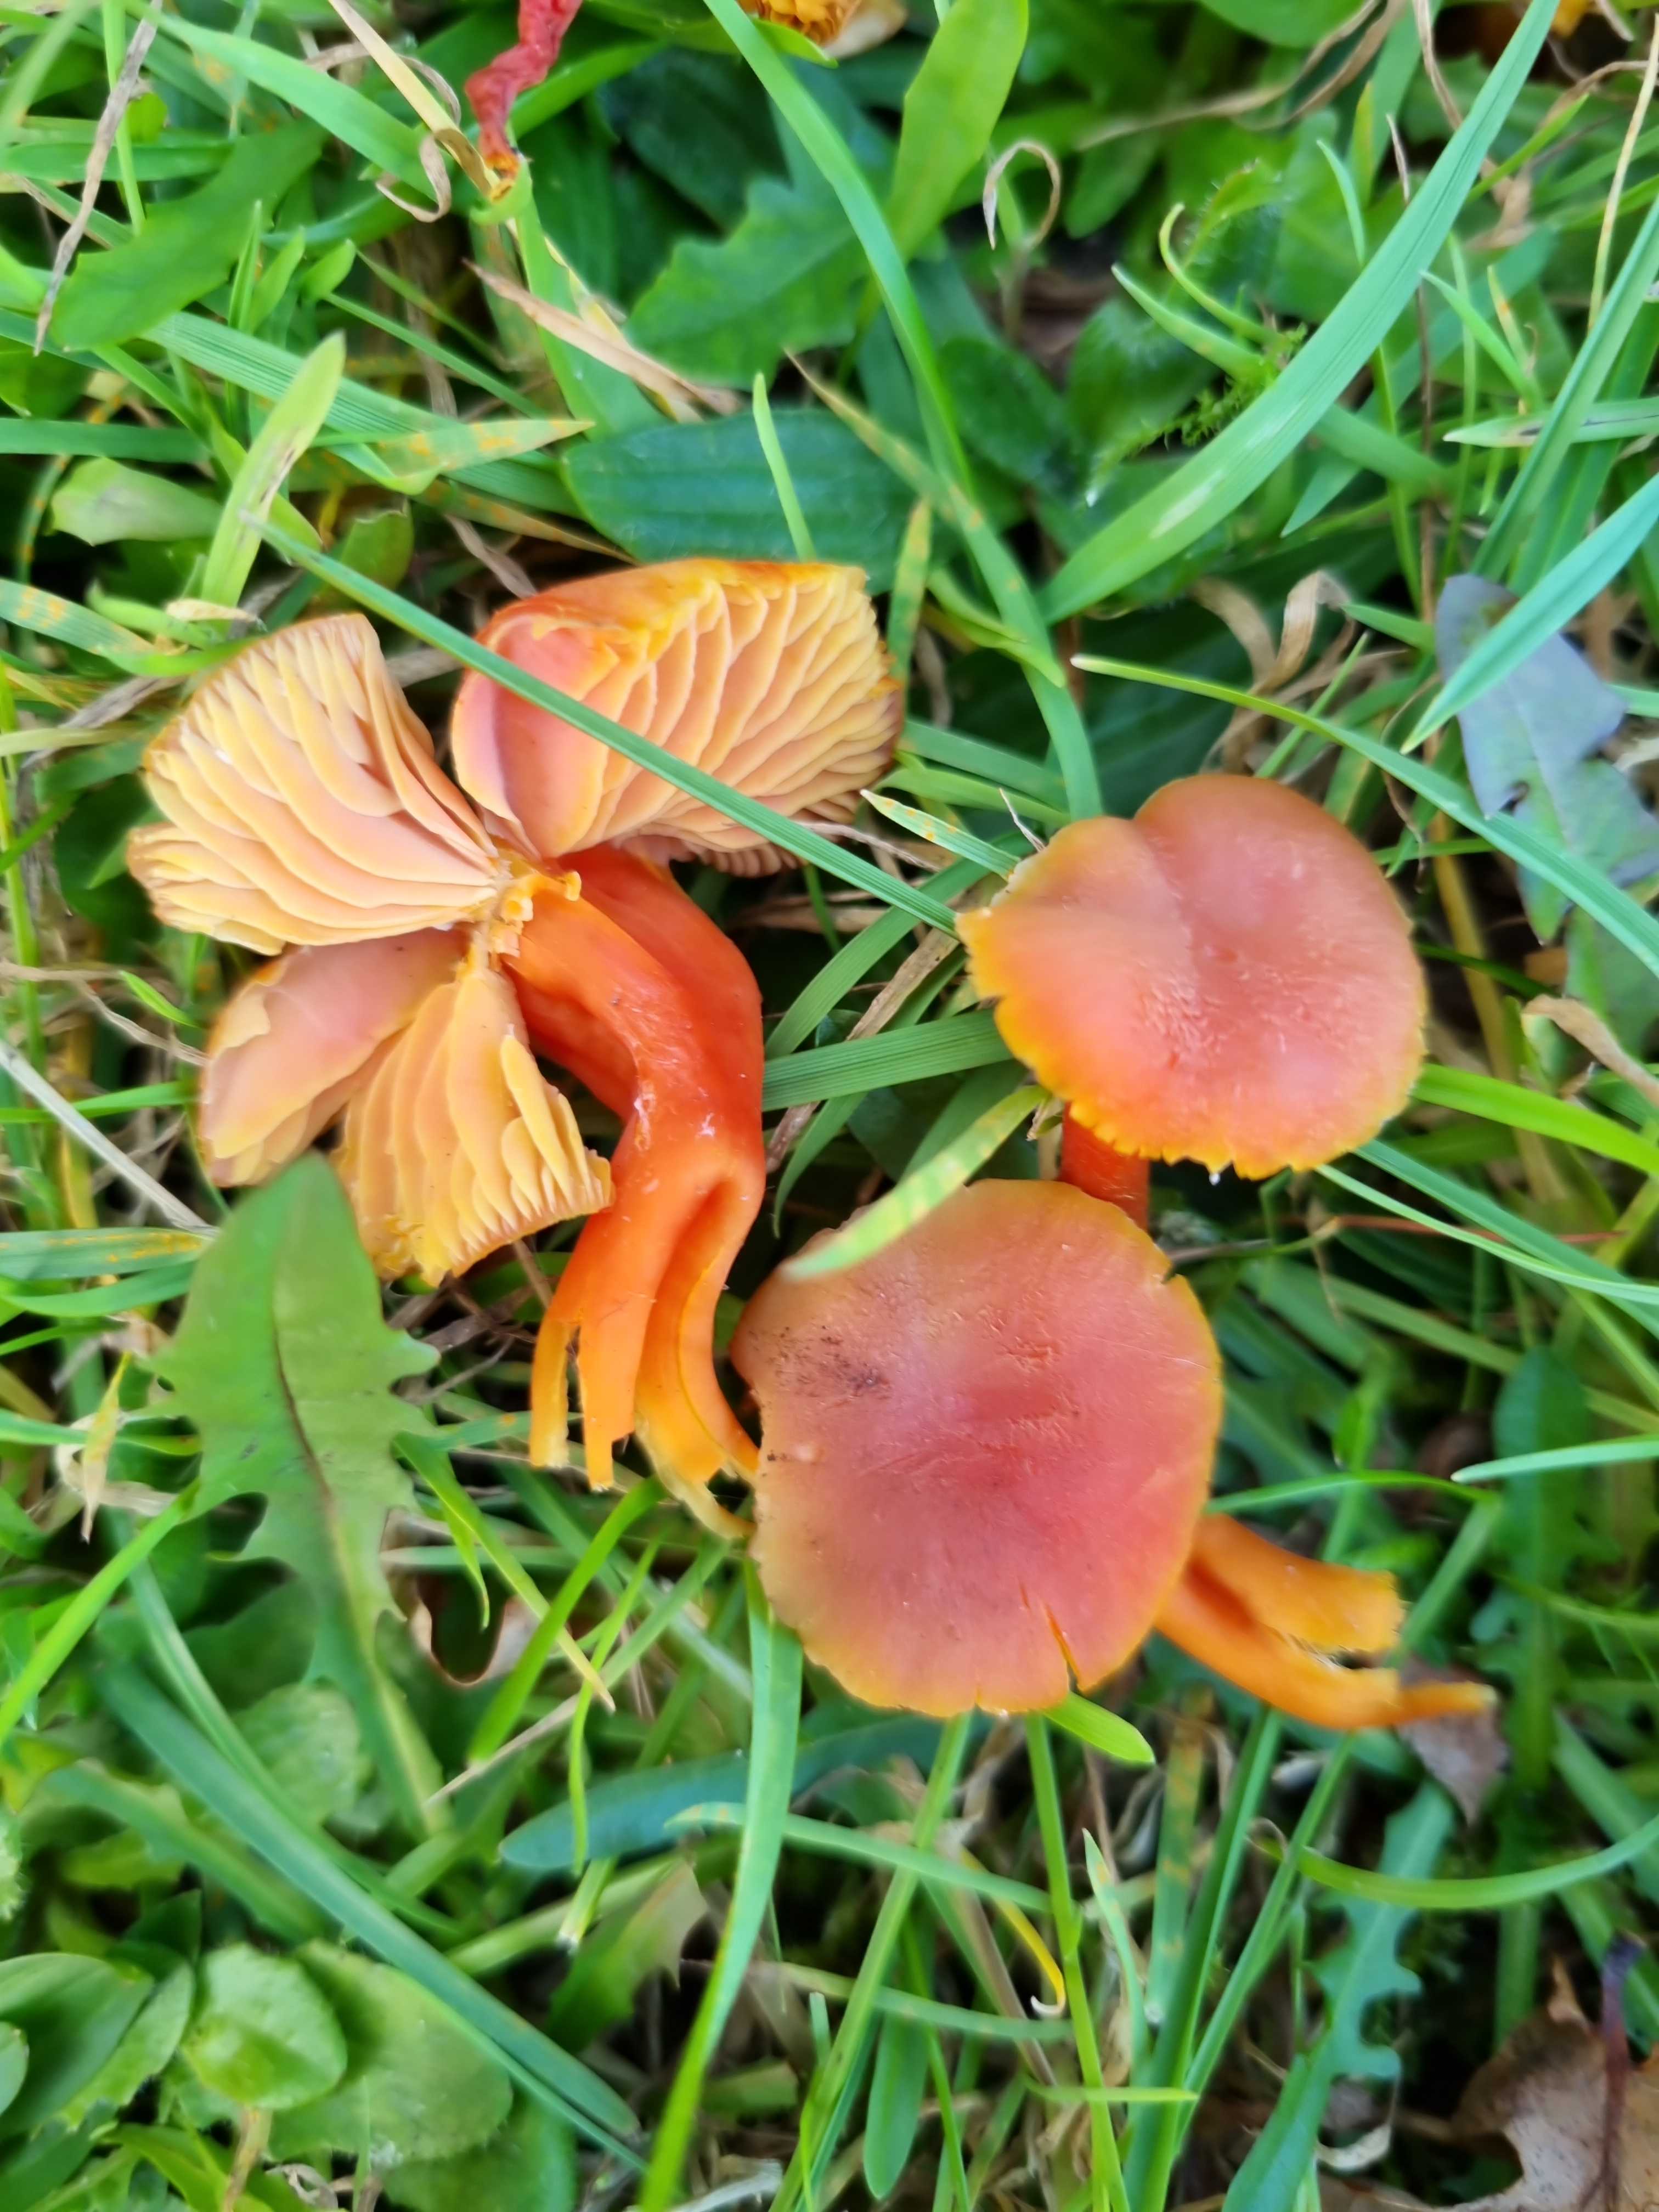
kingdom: Fungi
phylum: Basidiomycota
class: Agaricomycetes
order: Agaricales
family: Hygrophoraceae
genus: Hygrocybe
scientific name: Hygrocybe miniata
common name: mønje-vokshat
